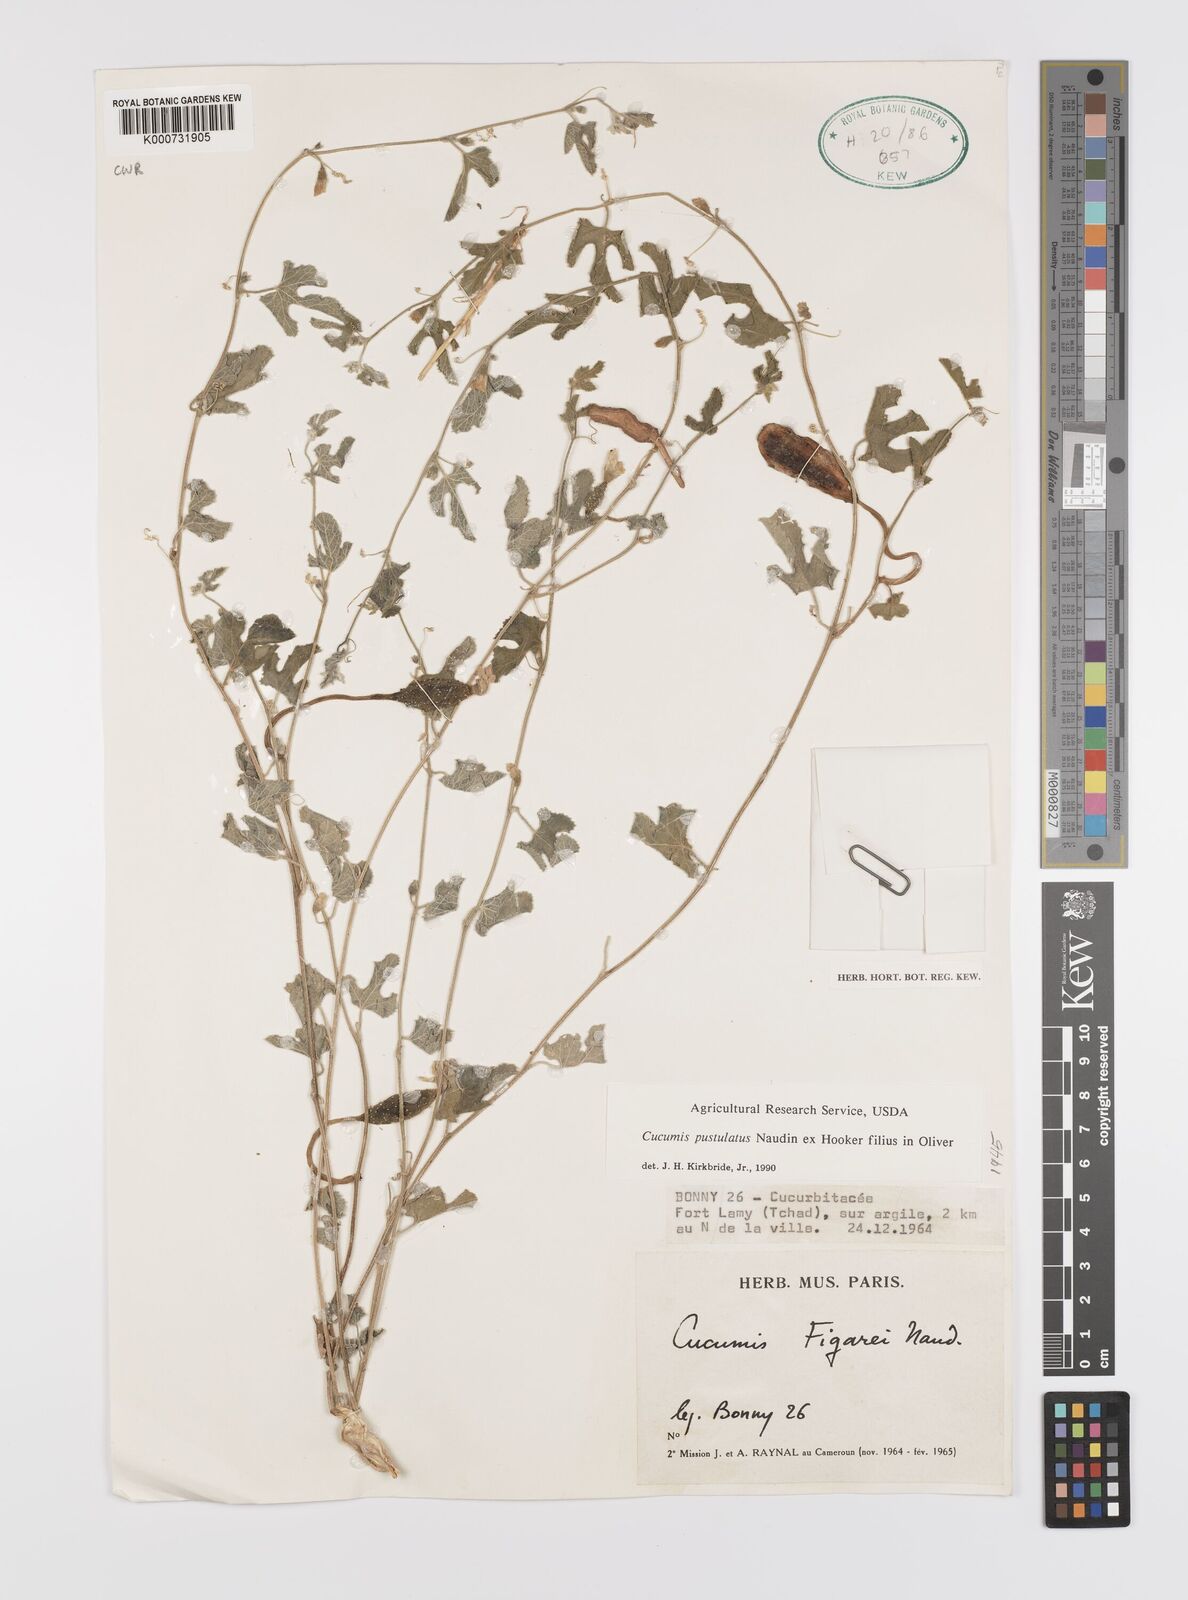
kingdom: Plantae
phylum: Tracheophyta
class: Magnoliopsida
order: Cucurbitales
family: Cucurbitaceae
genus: Cucumis
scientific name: Cucumis pustulatus
